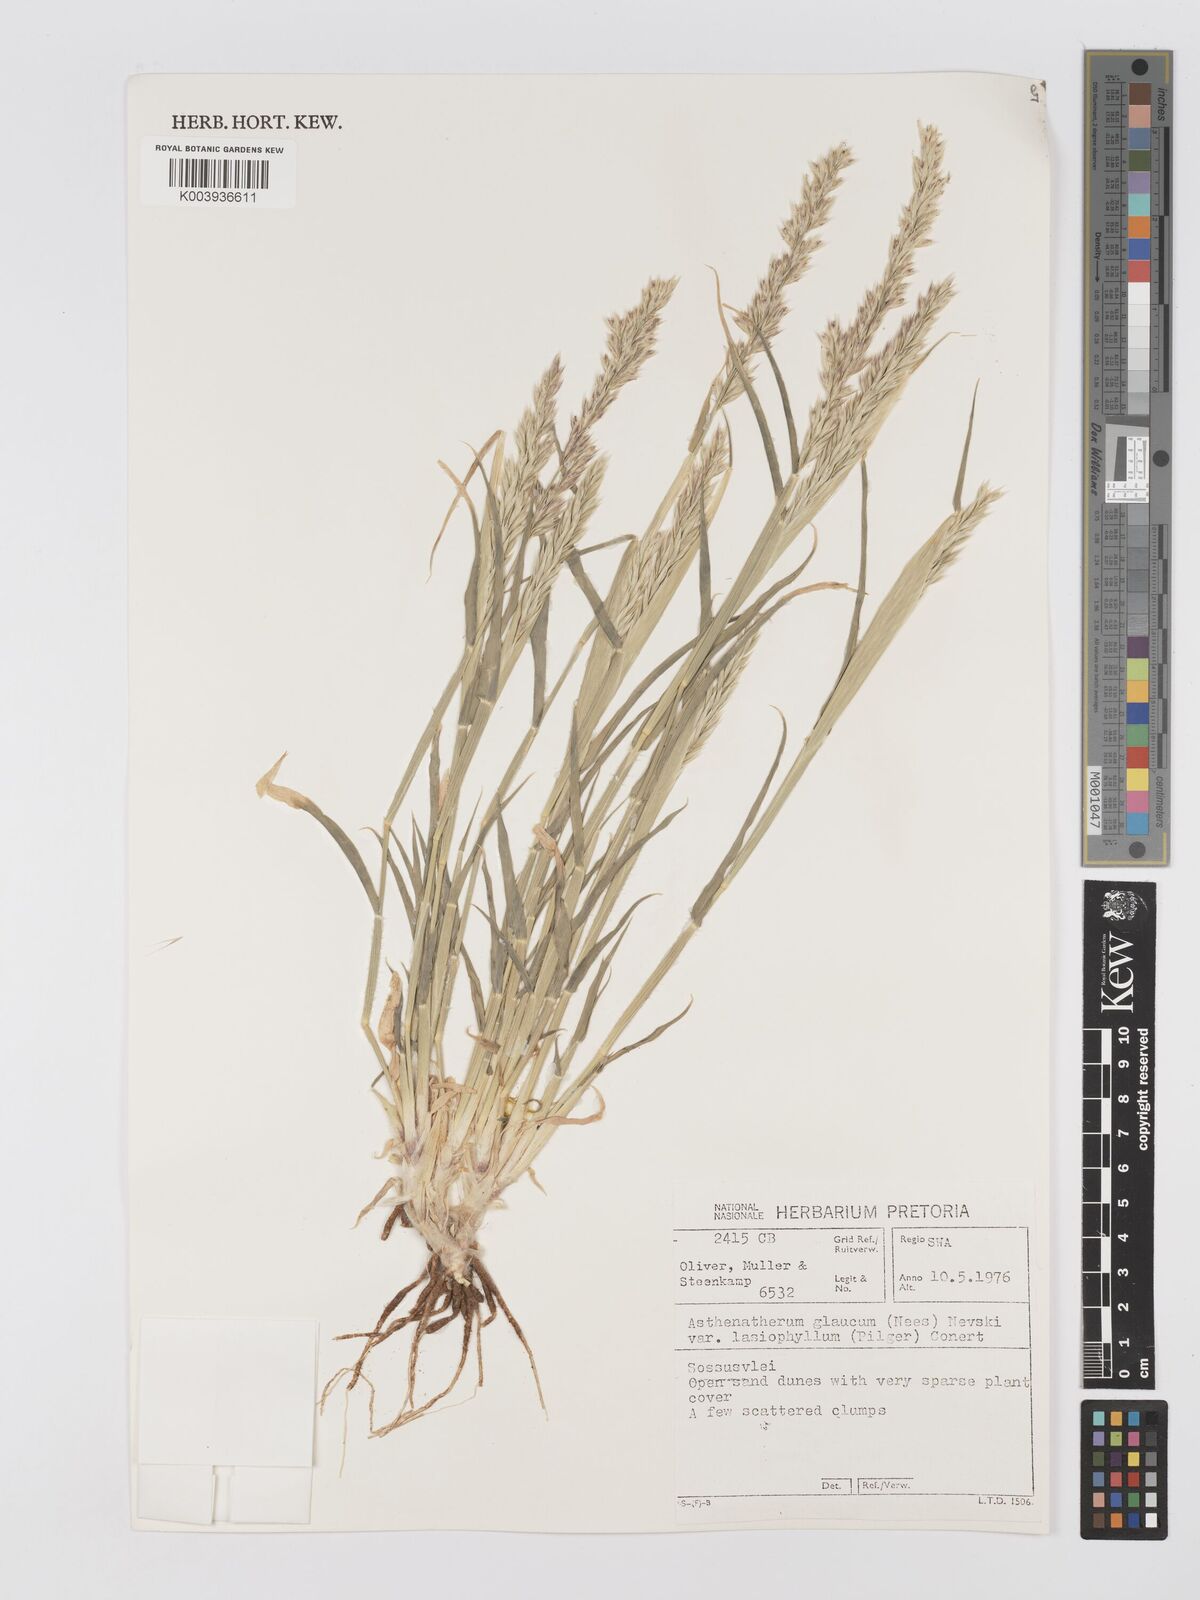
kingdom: Plantae
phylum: Tracheophyta
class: Liliopsida
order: Poales
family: Poaceae
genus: Centropodia
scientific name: Centropodia glauca
